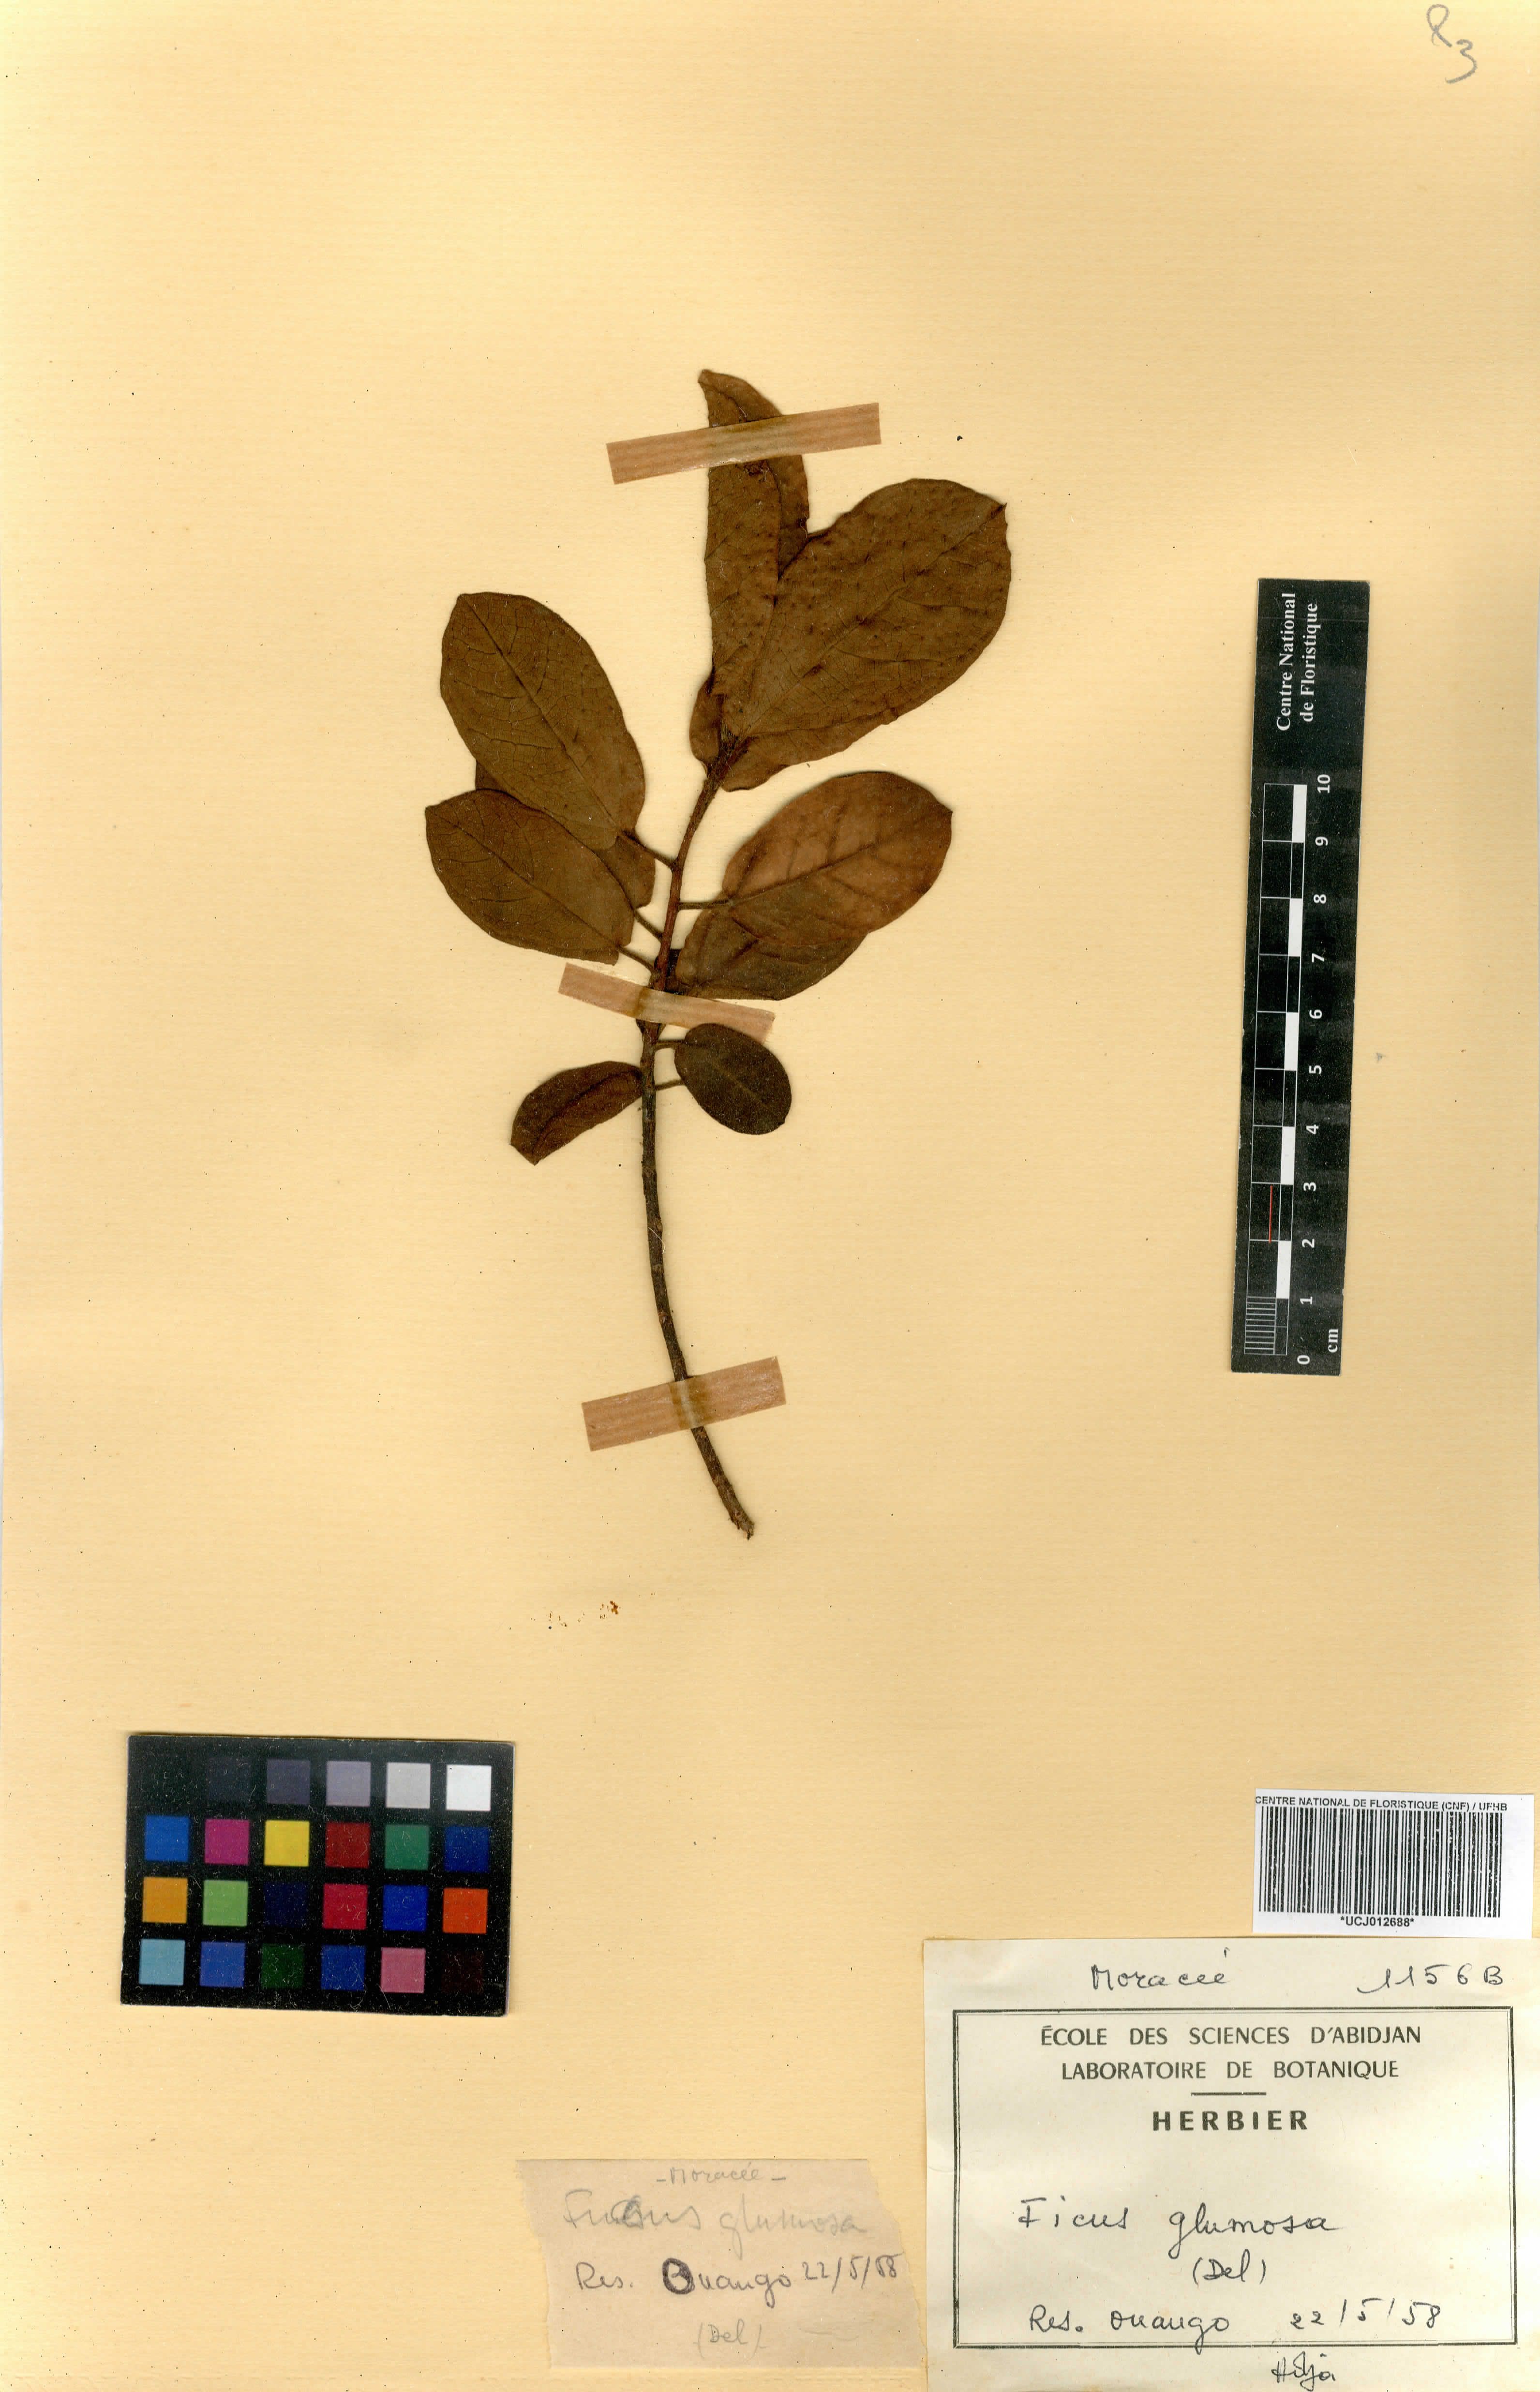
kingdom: Plantae
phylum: Tracheophyta
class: Magnoliopsida
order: Rosales
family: Moraceae
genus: Ficus
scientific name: Ficus glumosa
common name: Hairy rock fig
